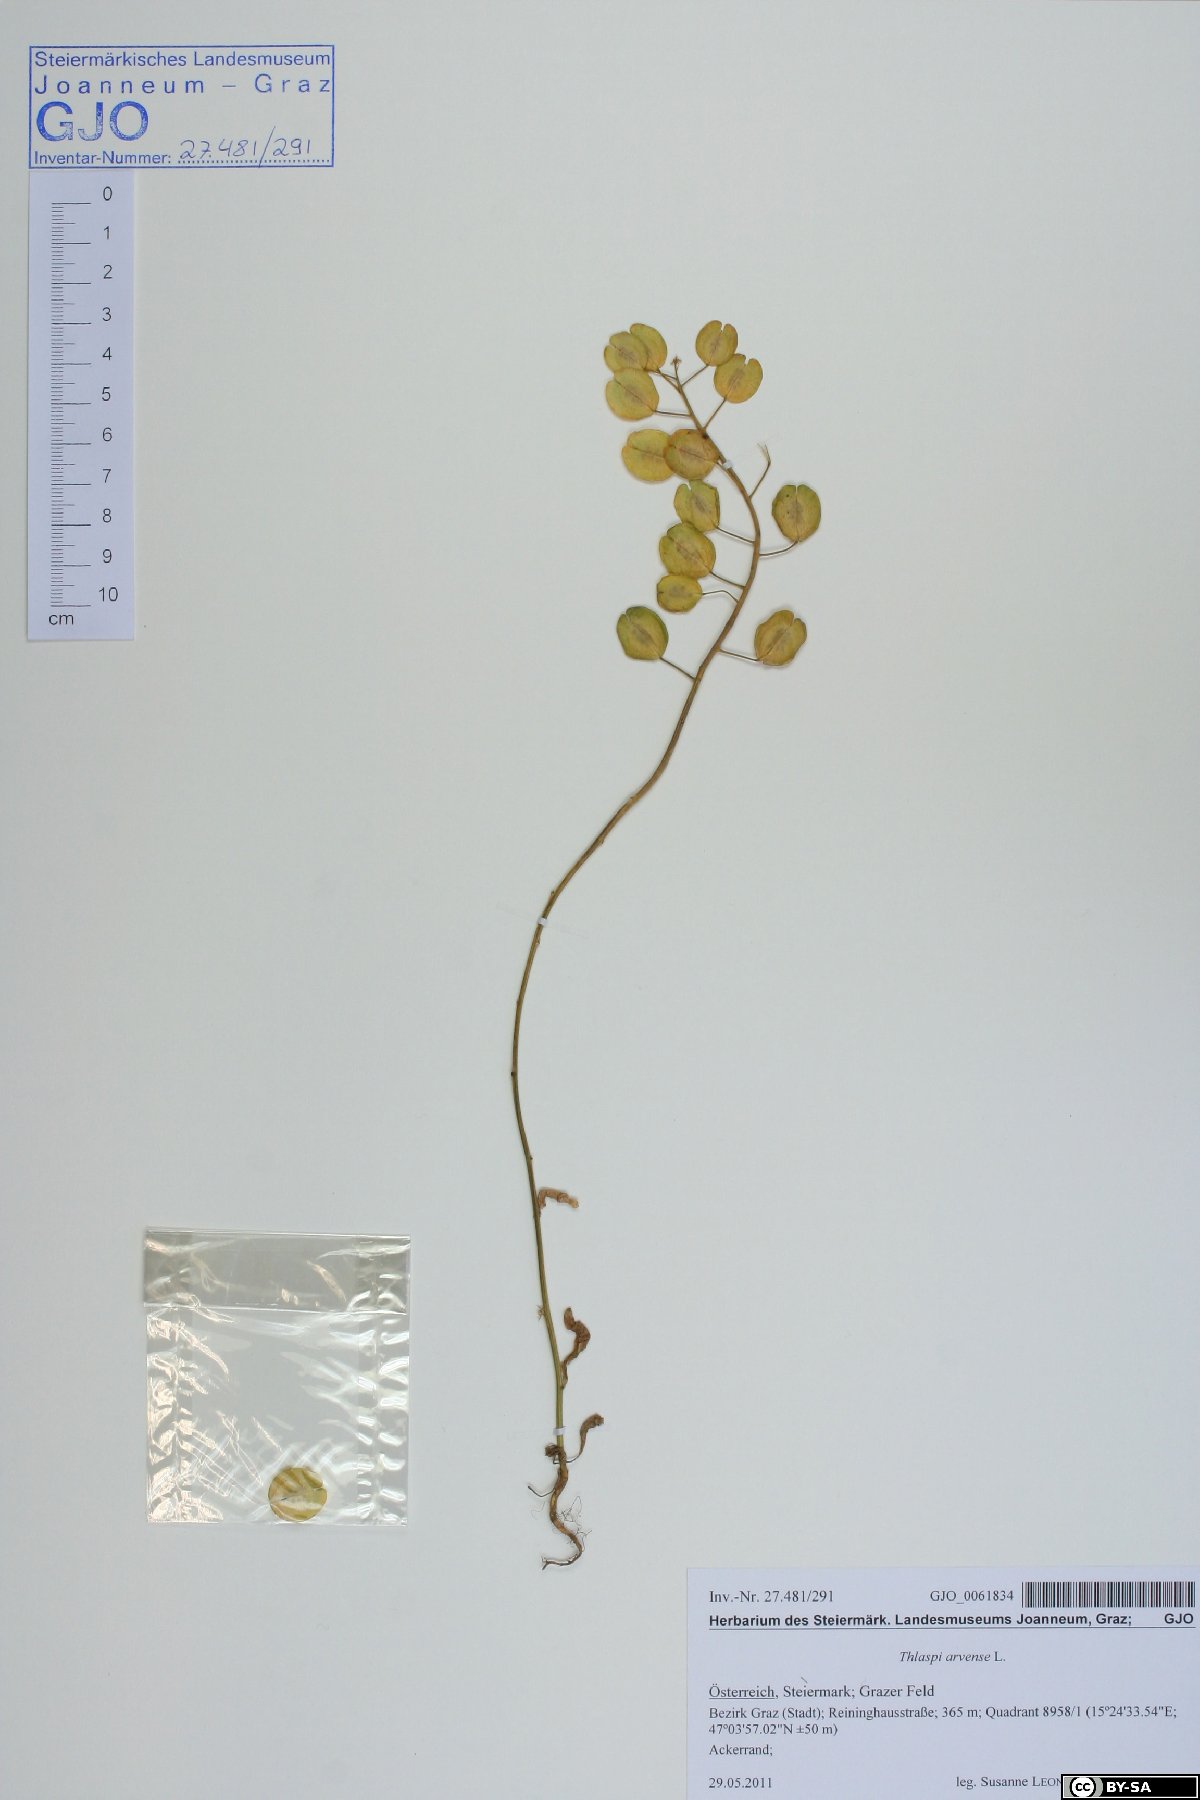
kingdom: Plantae
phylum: Tracheophyta
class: Magnoliopsida
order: Brassicales
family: Brassicaceae
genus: Thlaspi
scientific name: Thlaspi arvense
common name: Field pennycress
